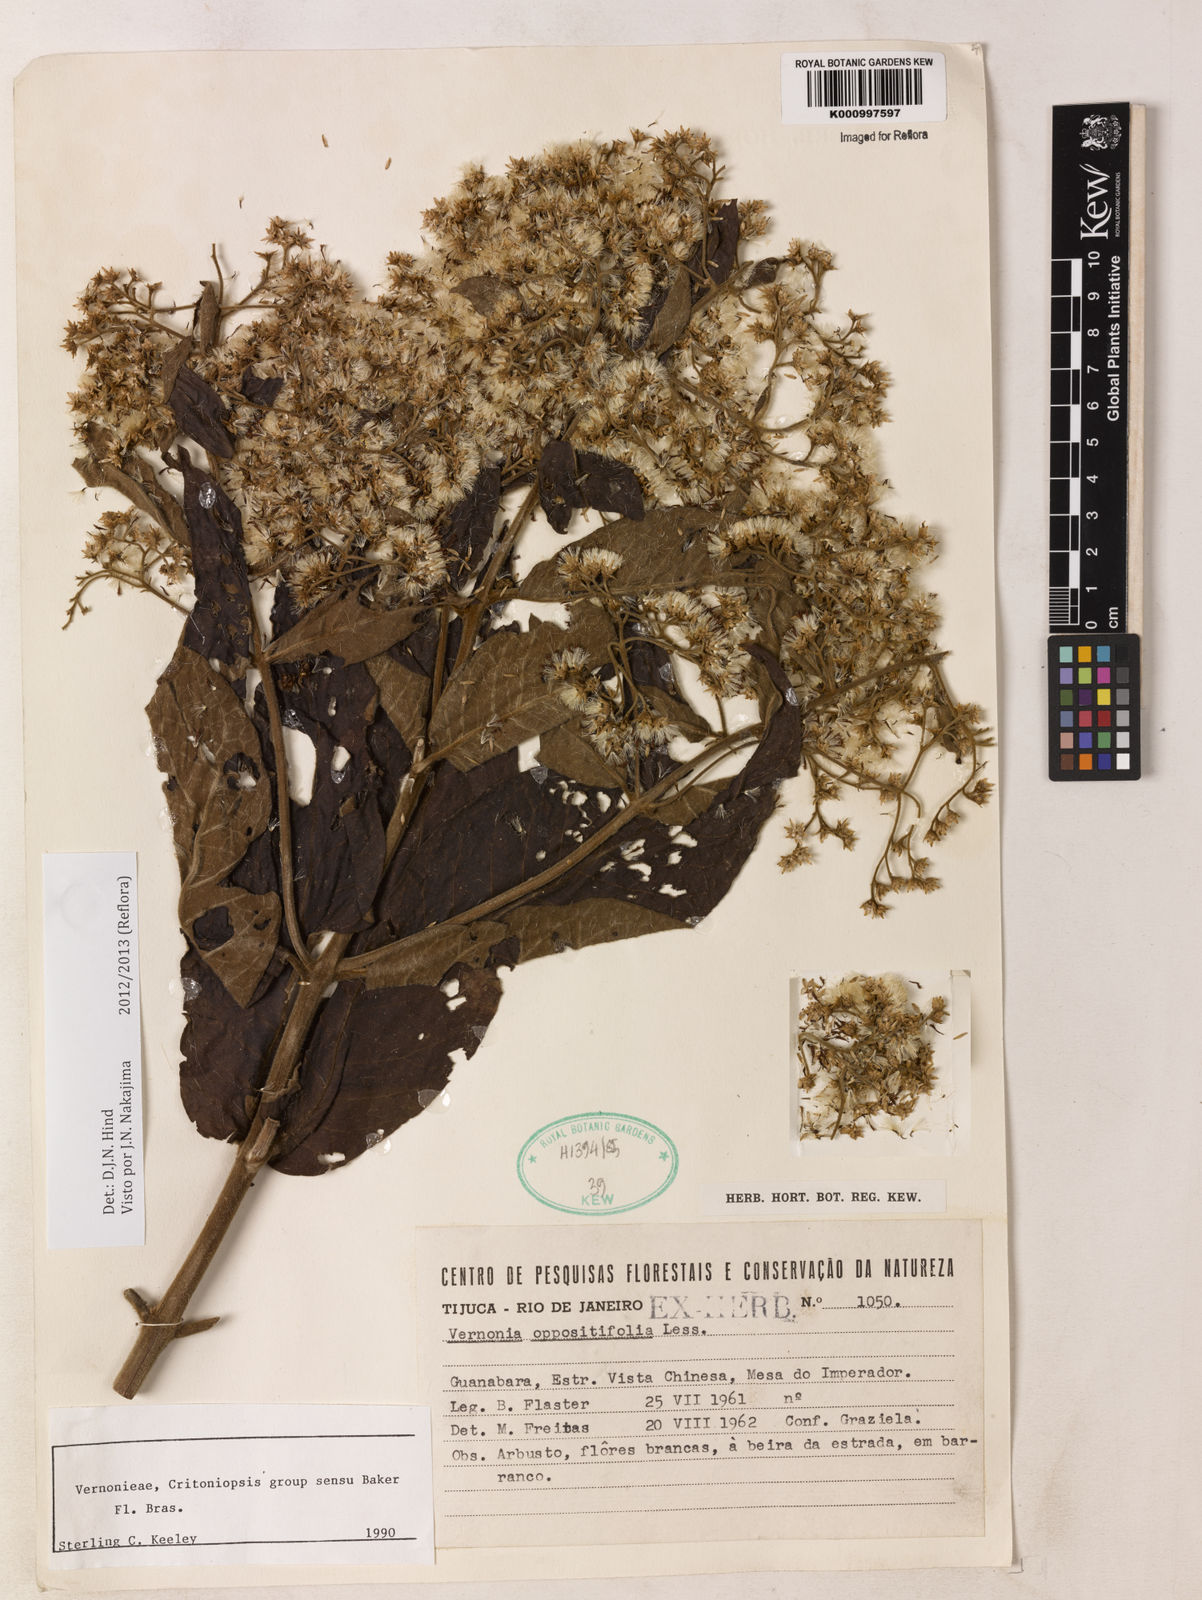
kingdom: Plantae
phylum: Tracheophyta
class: Magnoliopsida
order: Asterales
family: Asteraceae
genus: Critoniopsis
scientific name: Critoniopsis stellata
